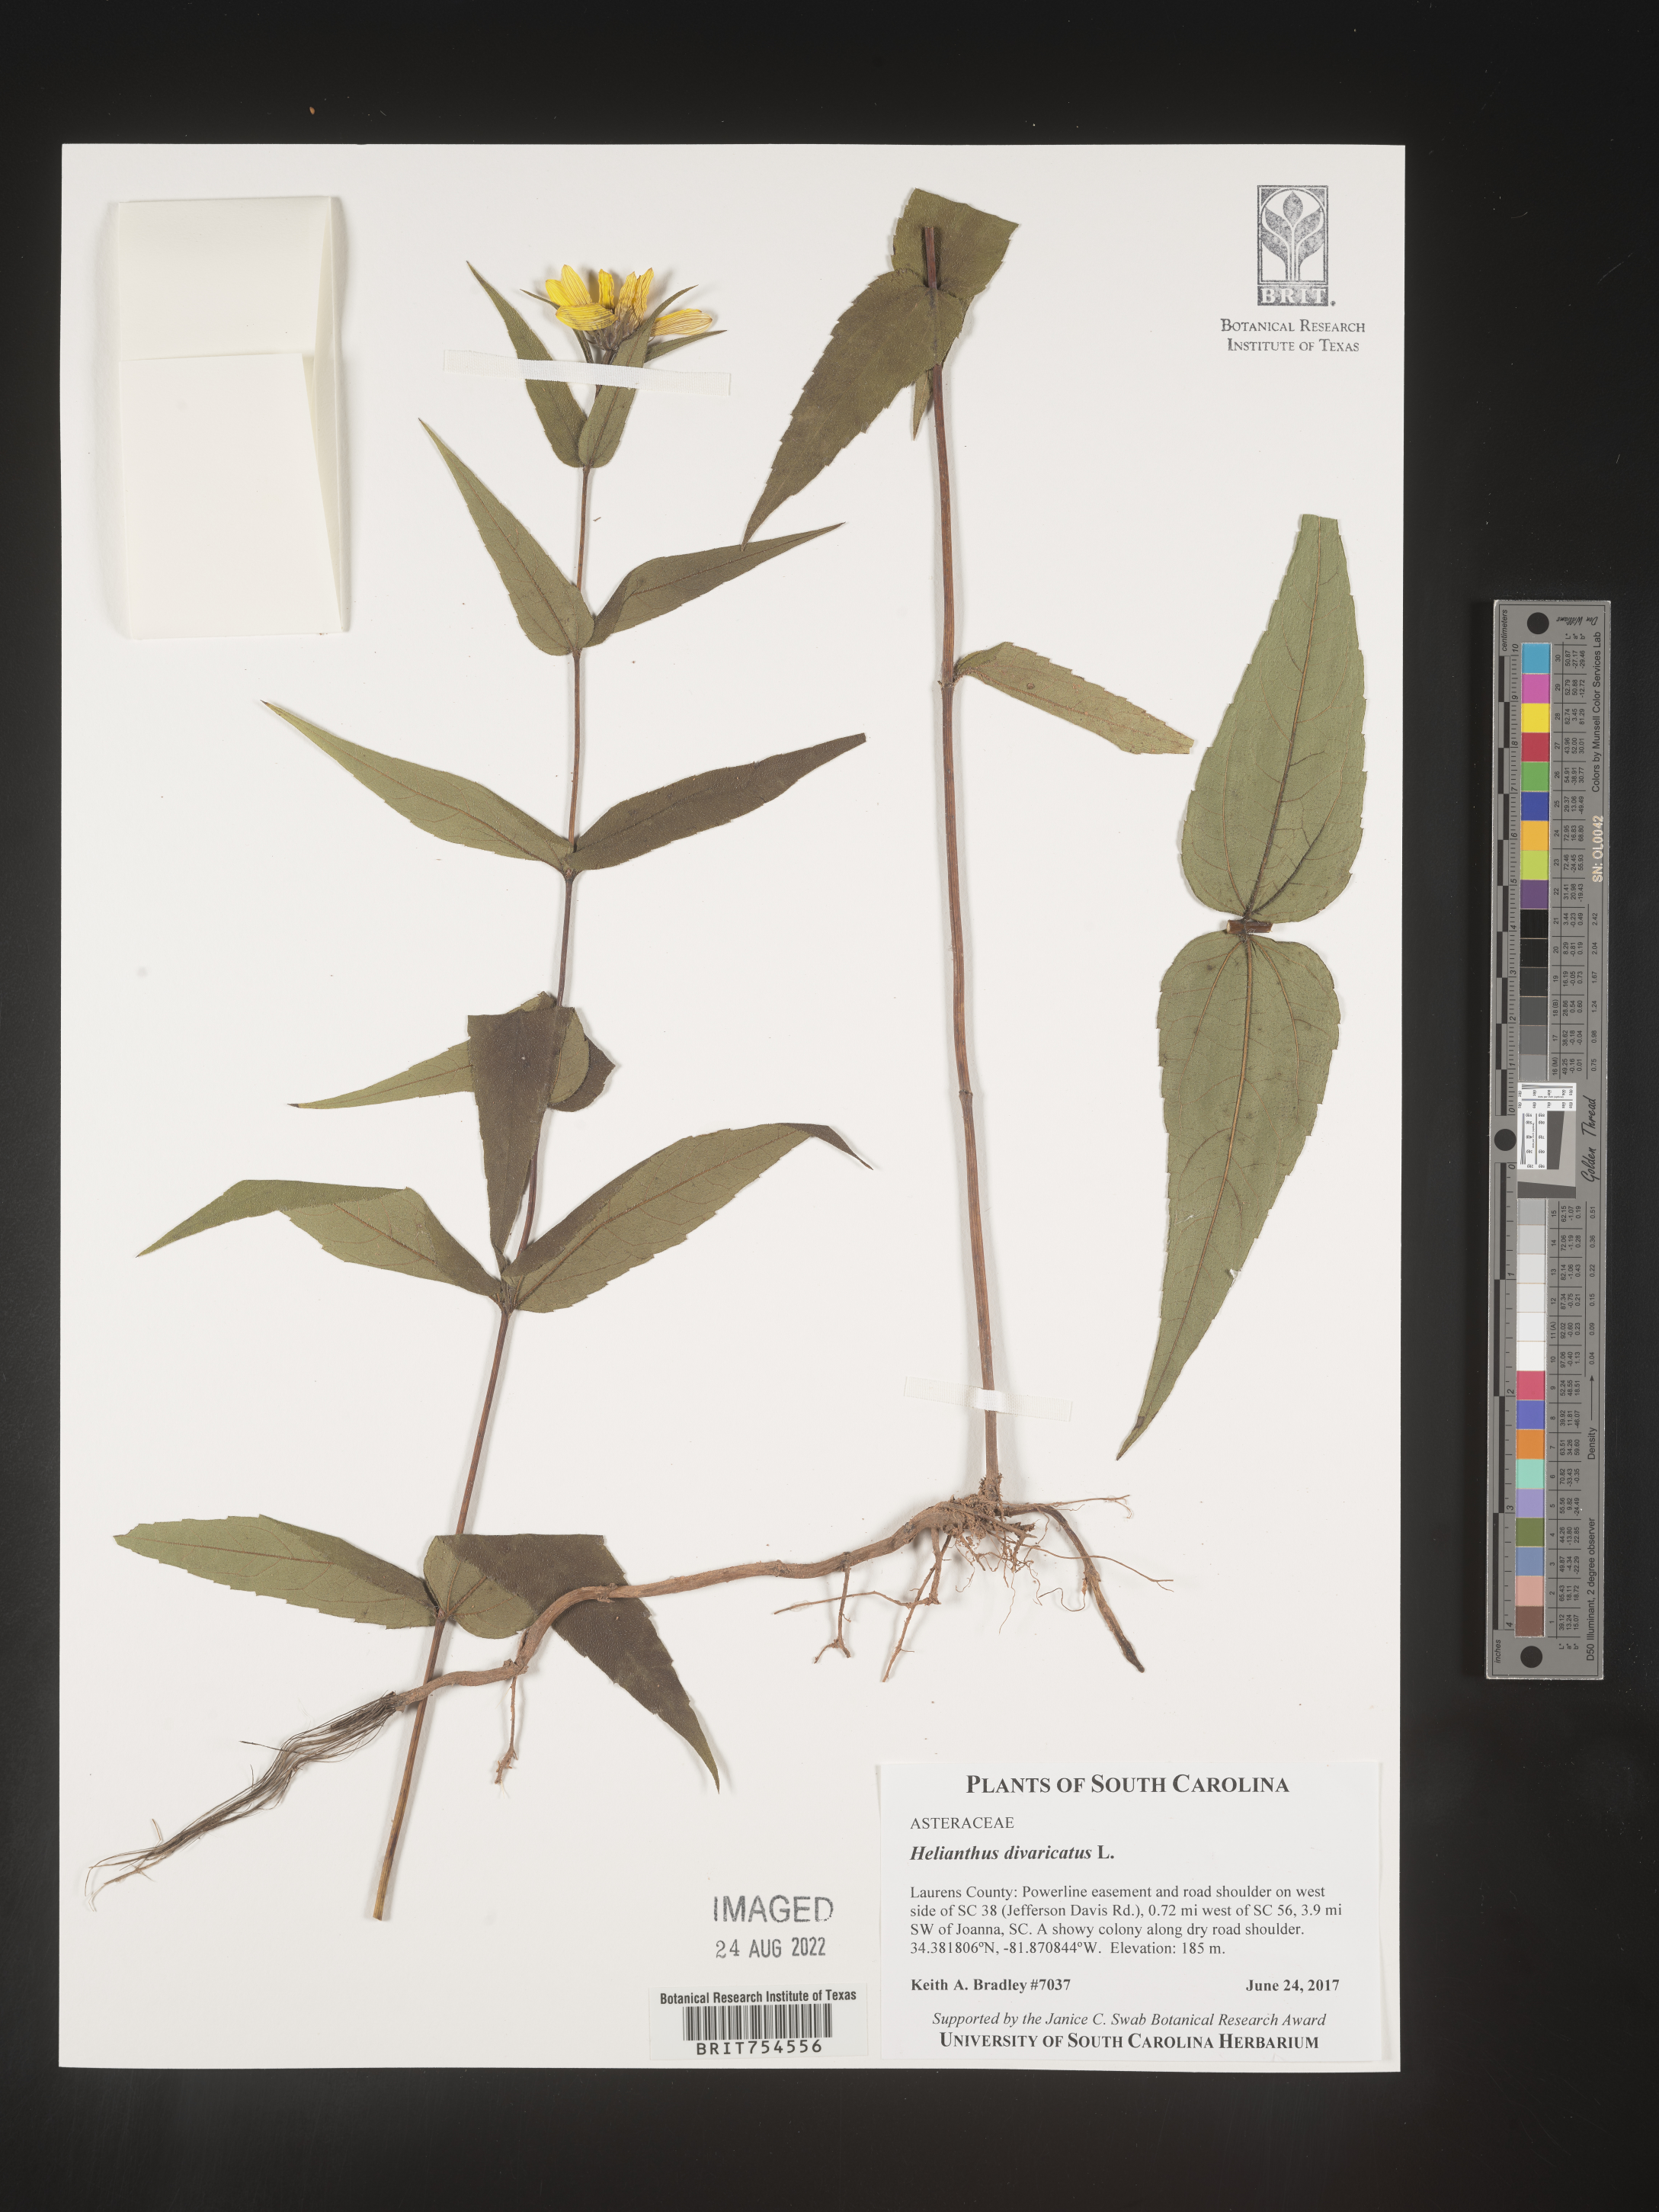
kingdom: Plantae
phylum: Tracheophyta
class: Magnoliopsida
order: Asterales
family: Asteraceae
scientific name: Asteraceae
